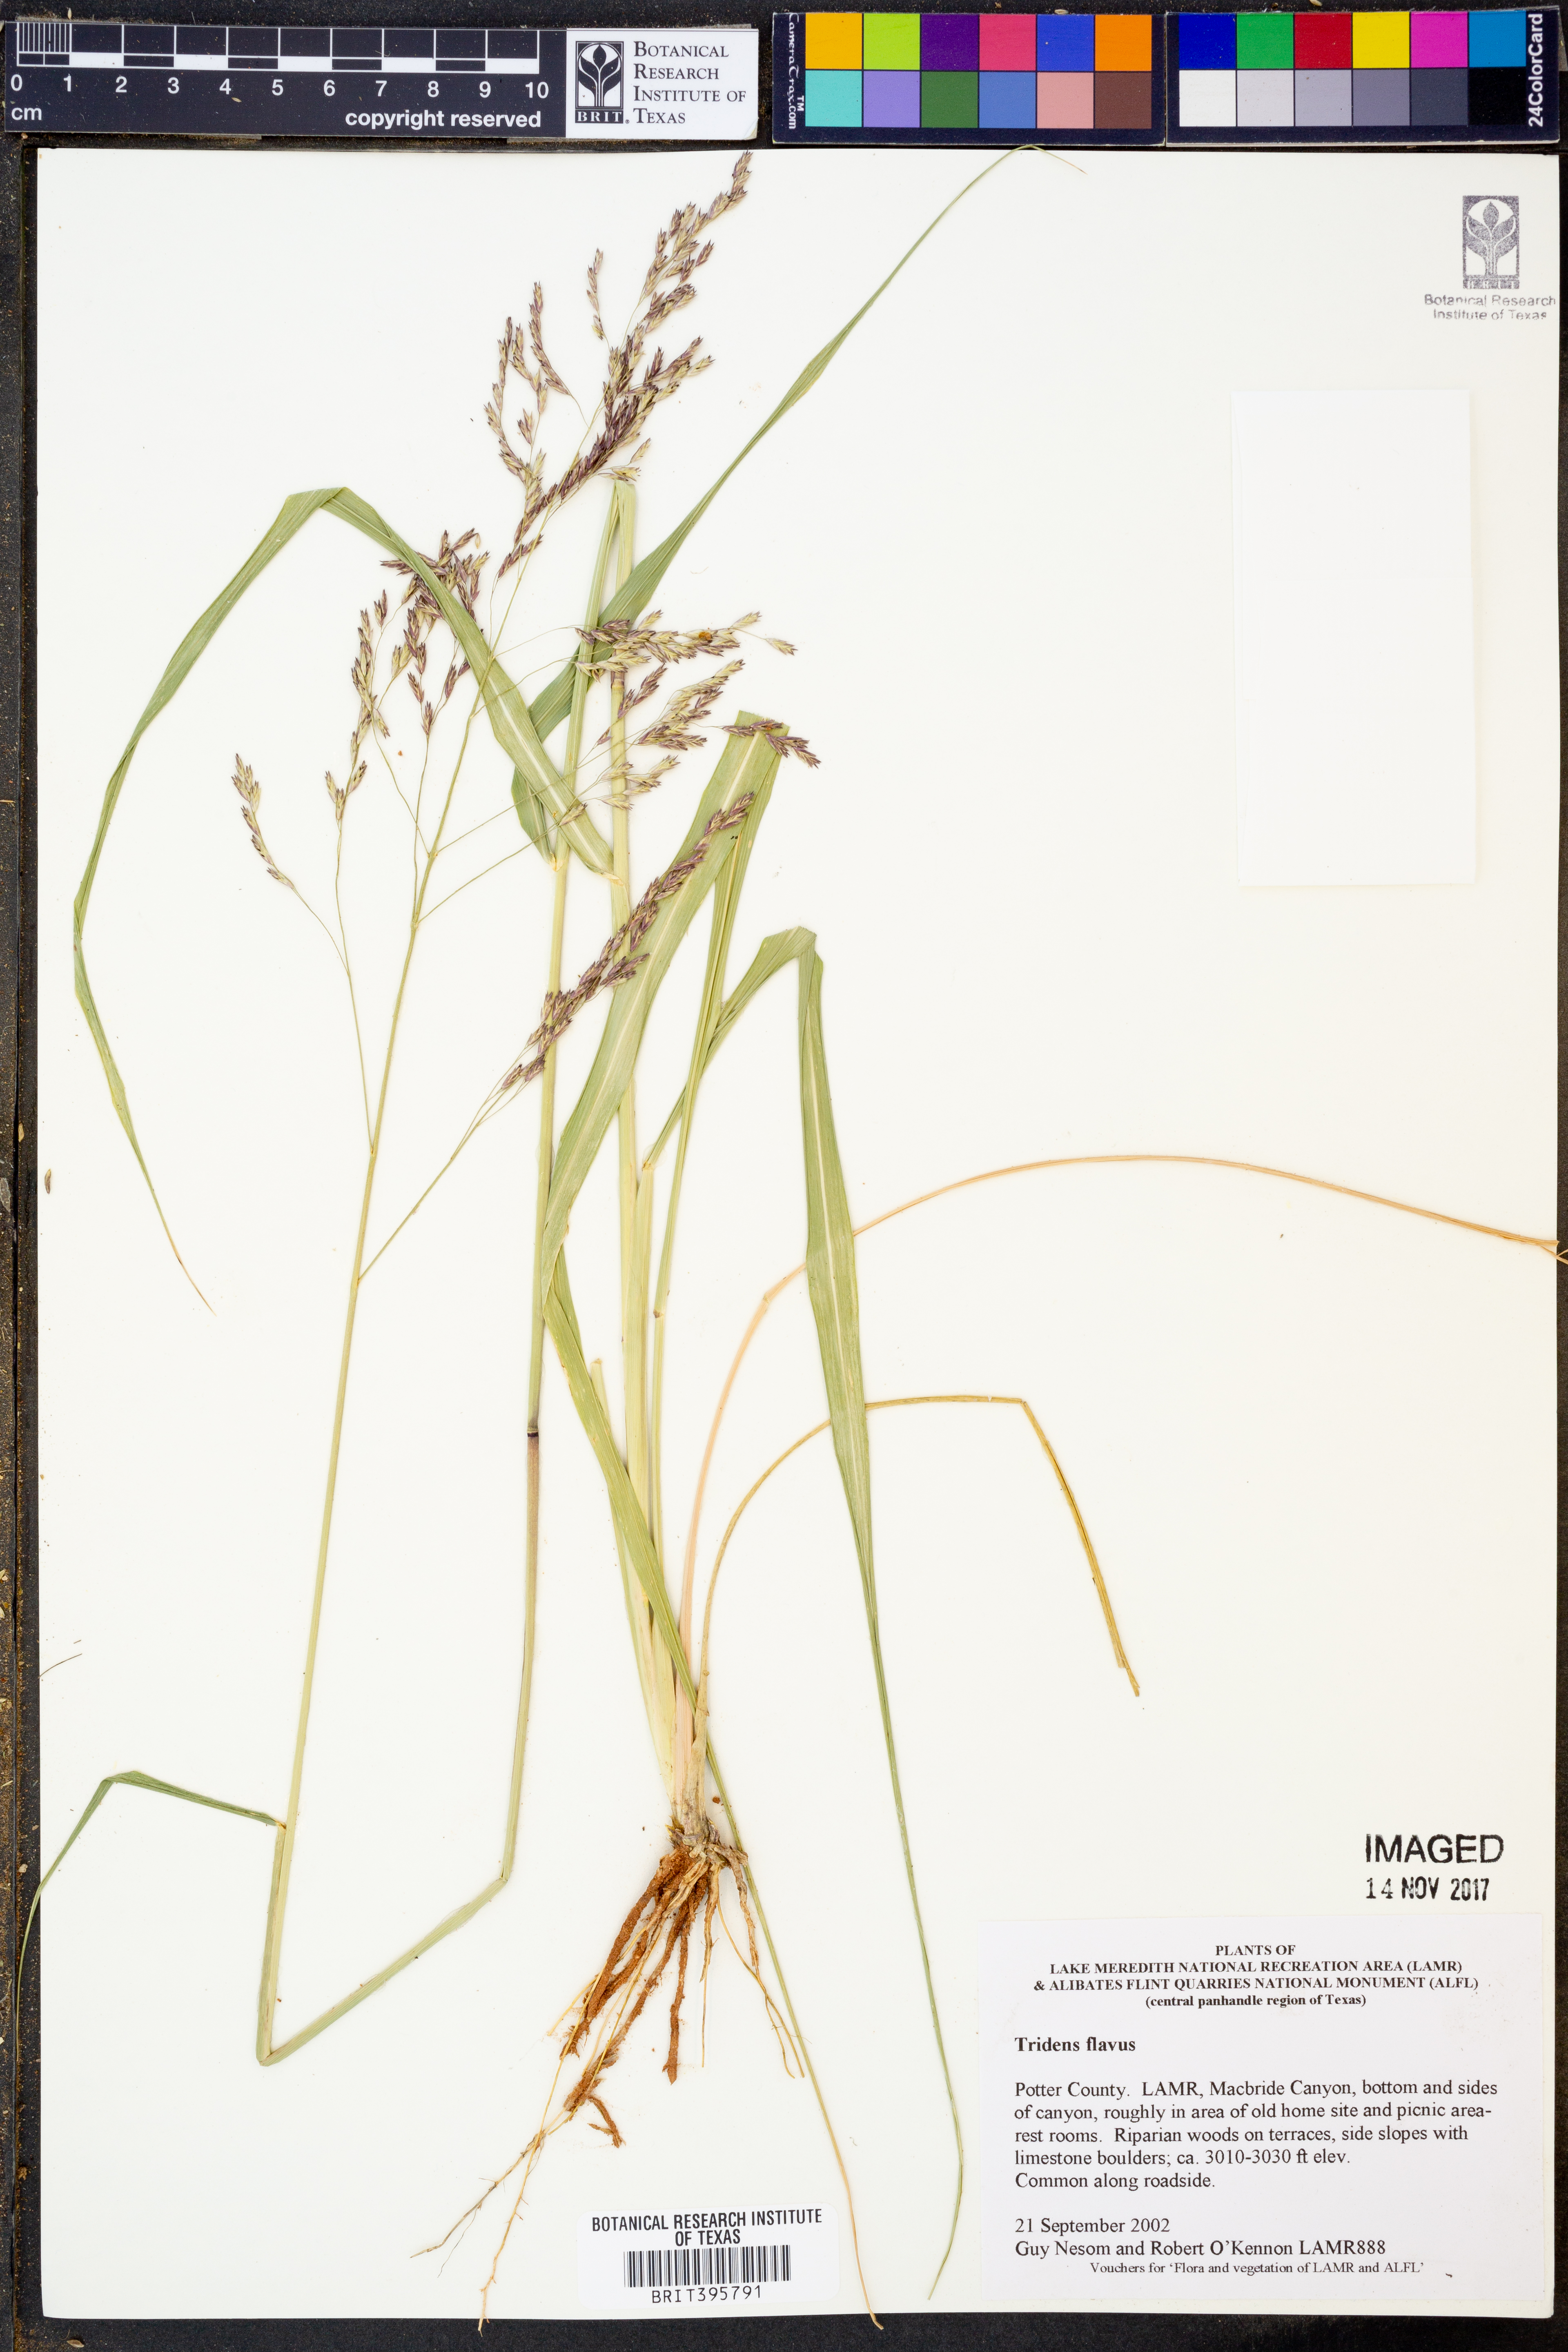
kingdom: Plantae
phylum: Tracheophyta
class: Liliopsida
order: Poales
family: Poaceae
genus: Tridens
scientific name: Tridens flavus
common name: Purpletop
